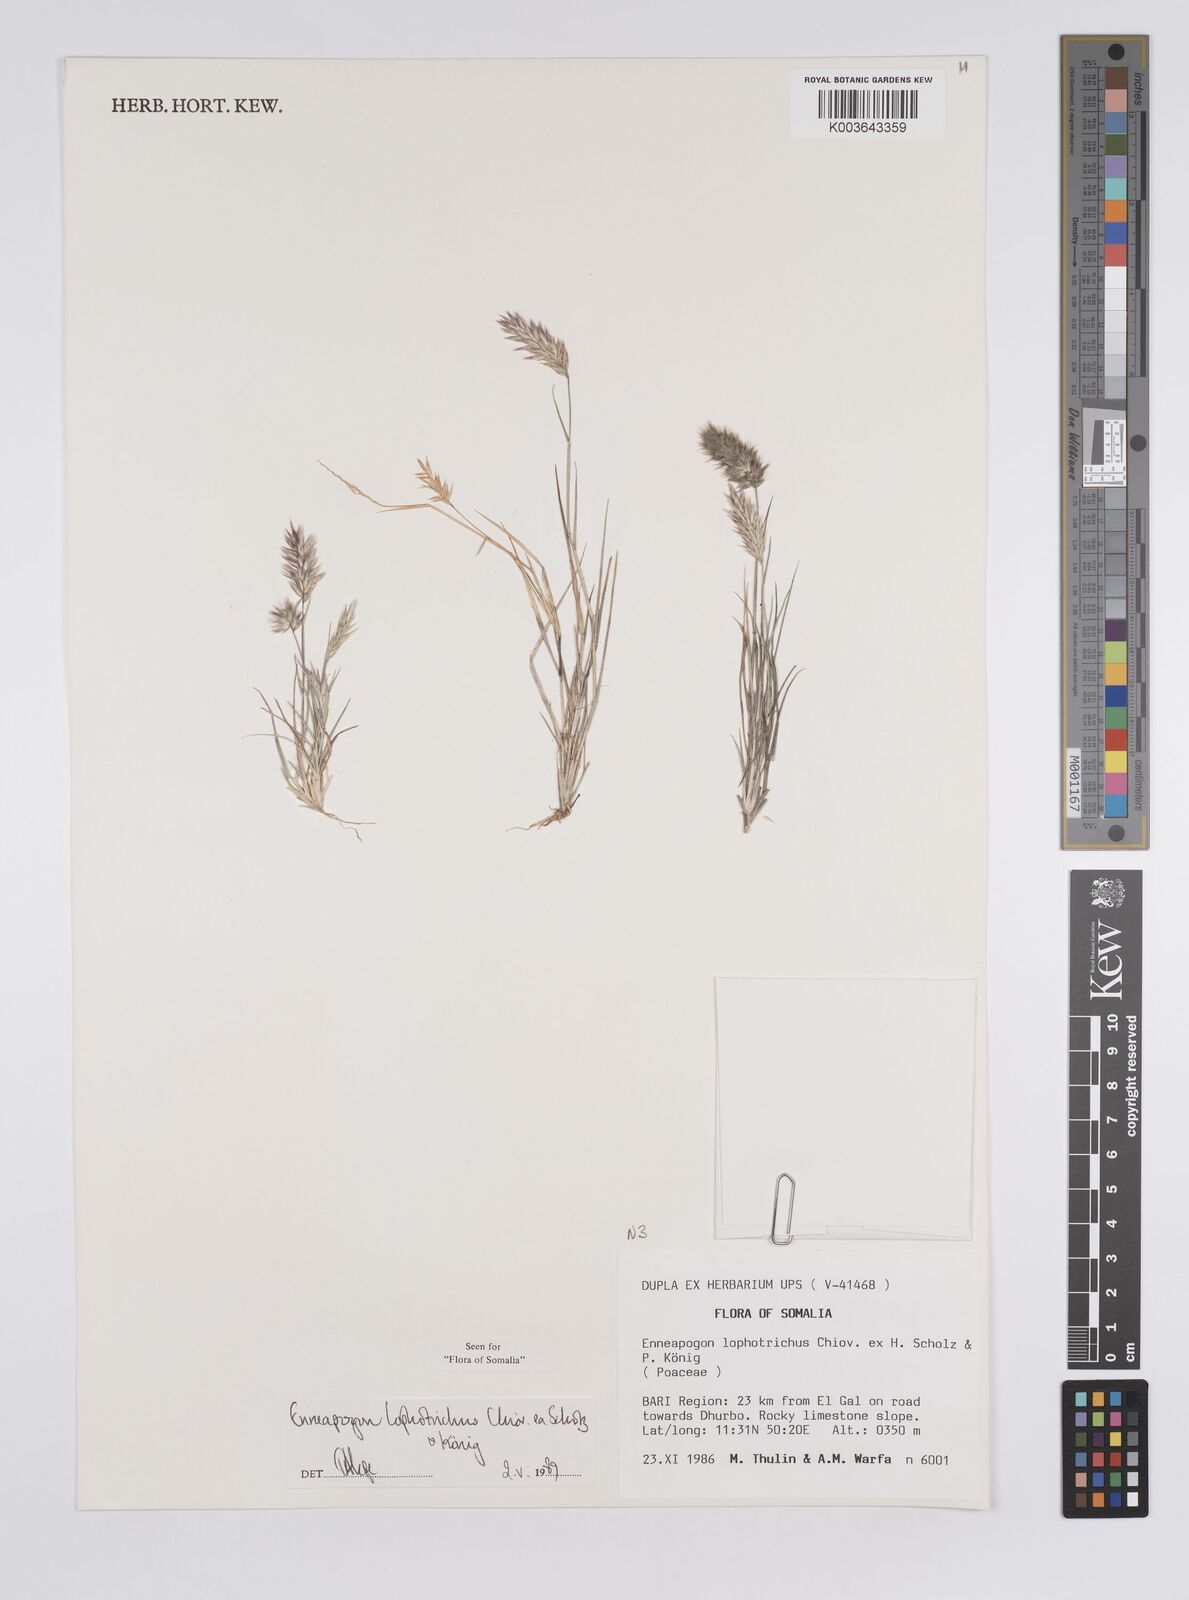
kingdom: Plantae
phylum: Tracheophyta
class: Liliopsida
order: Poales
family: Poaceae
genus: Enneapogon
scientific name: Enneapogon lophotrichus
